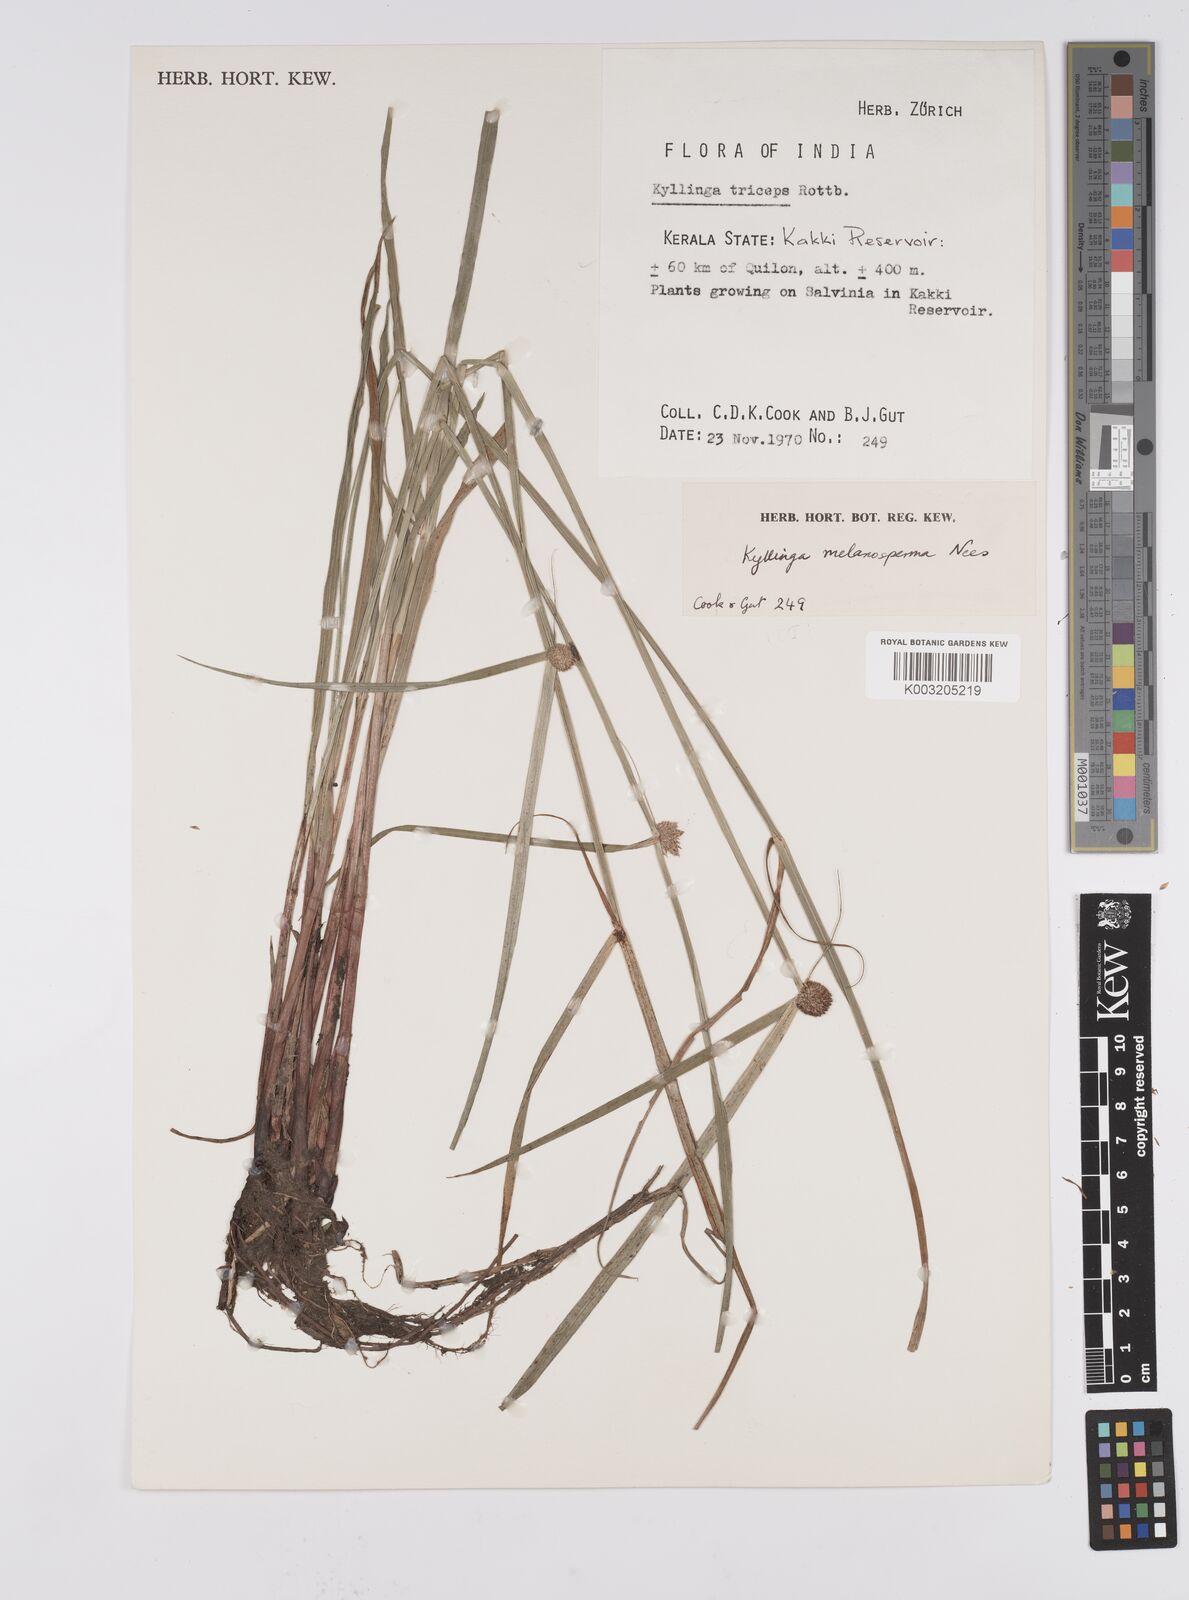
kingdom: Plantae
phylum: Tracheophyta
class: Liliopsida
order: Poales
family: Cyperaceae
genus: Cyperus
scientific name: Cyperus melanospermus
